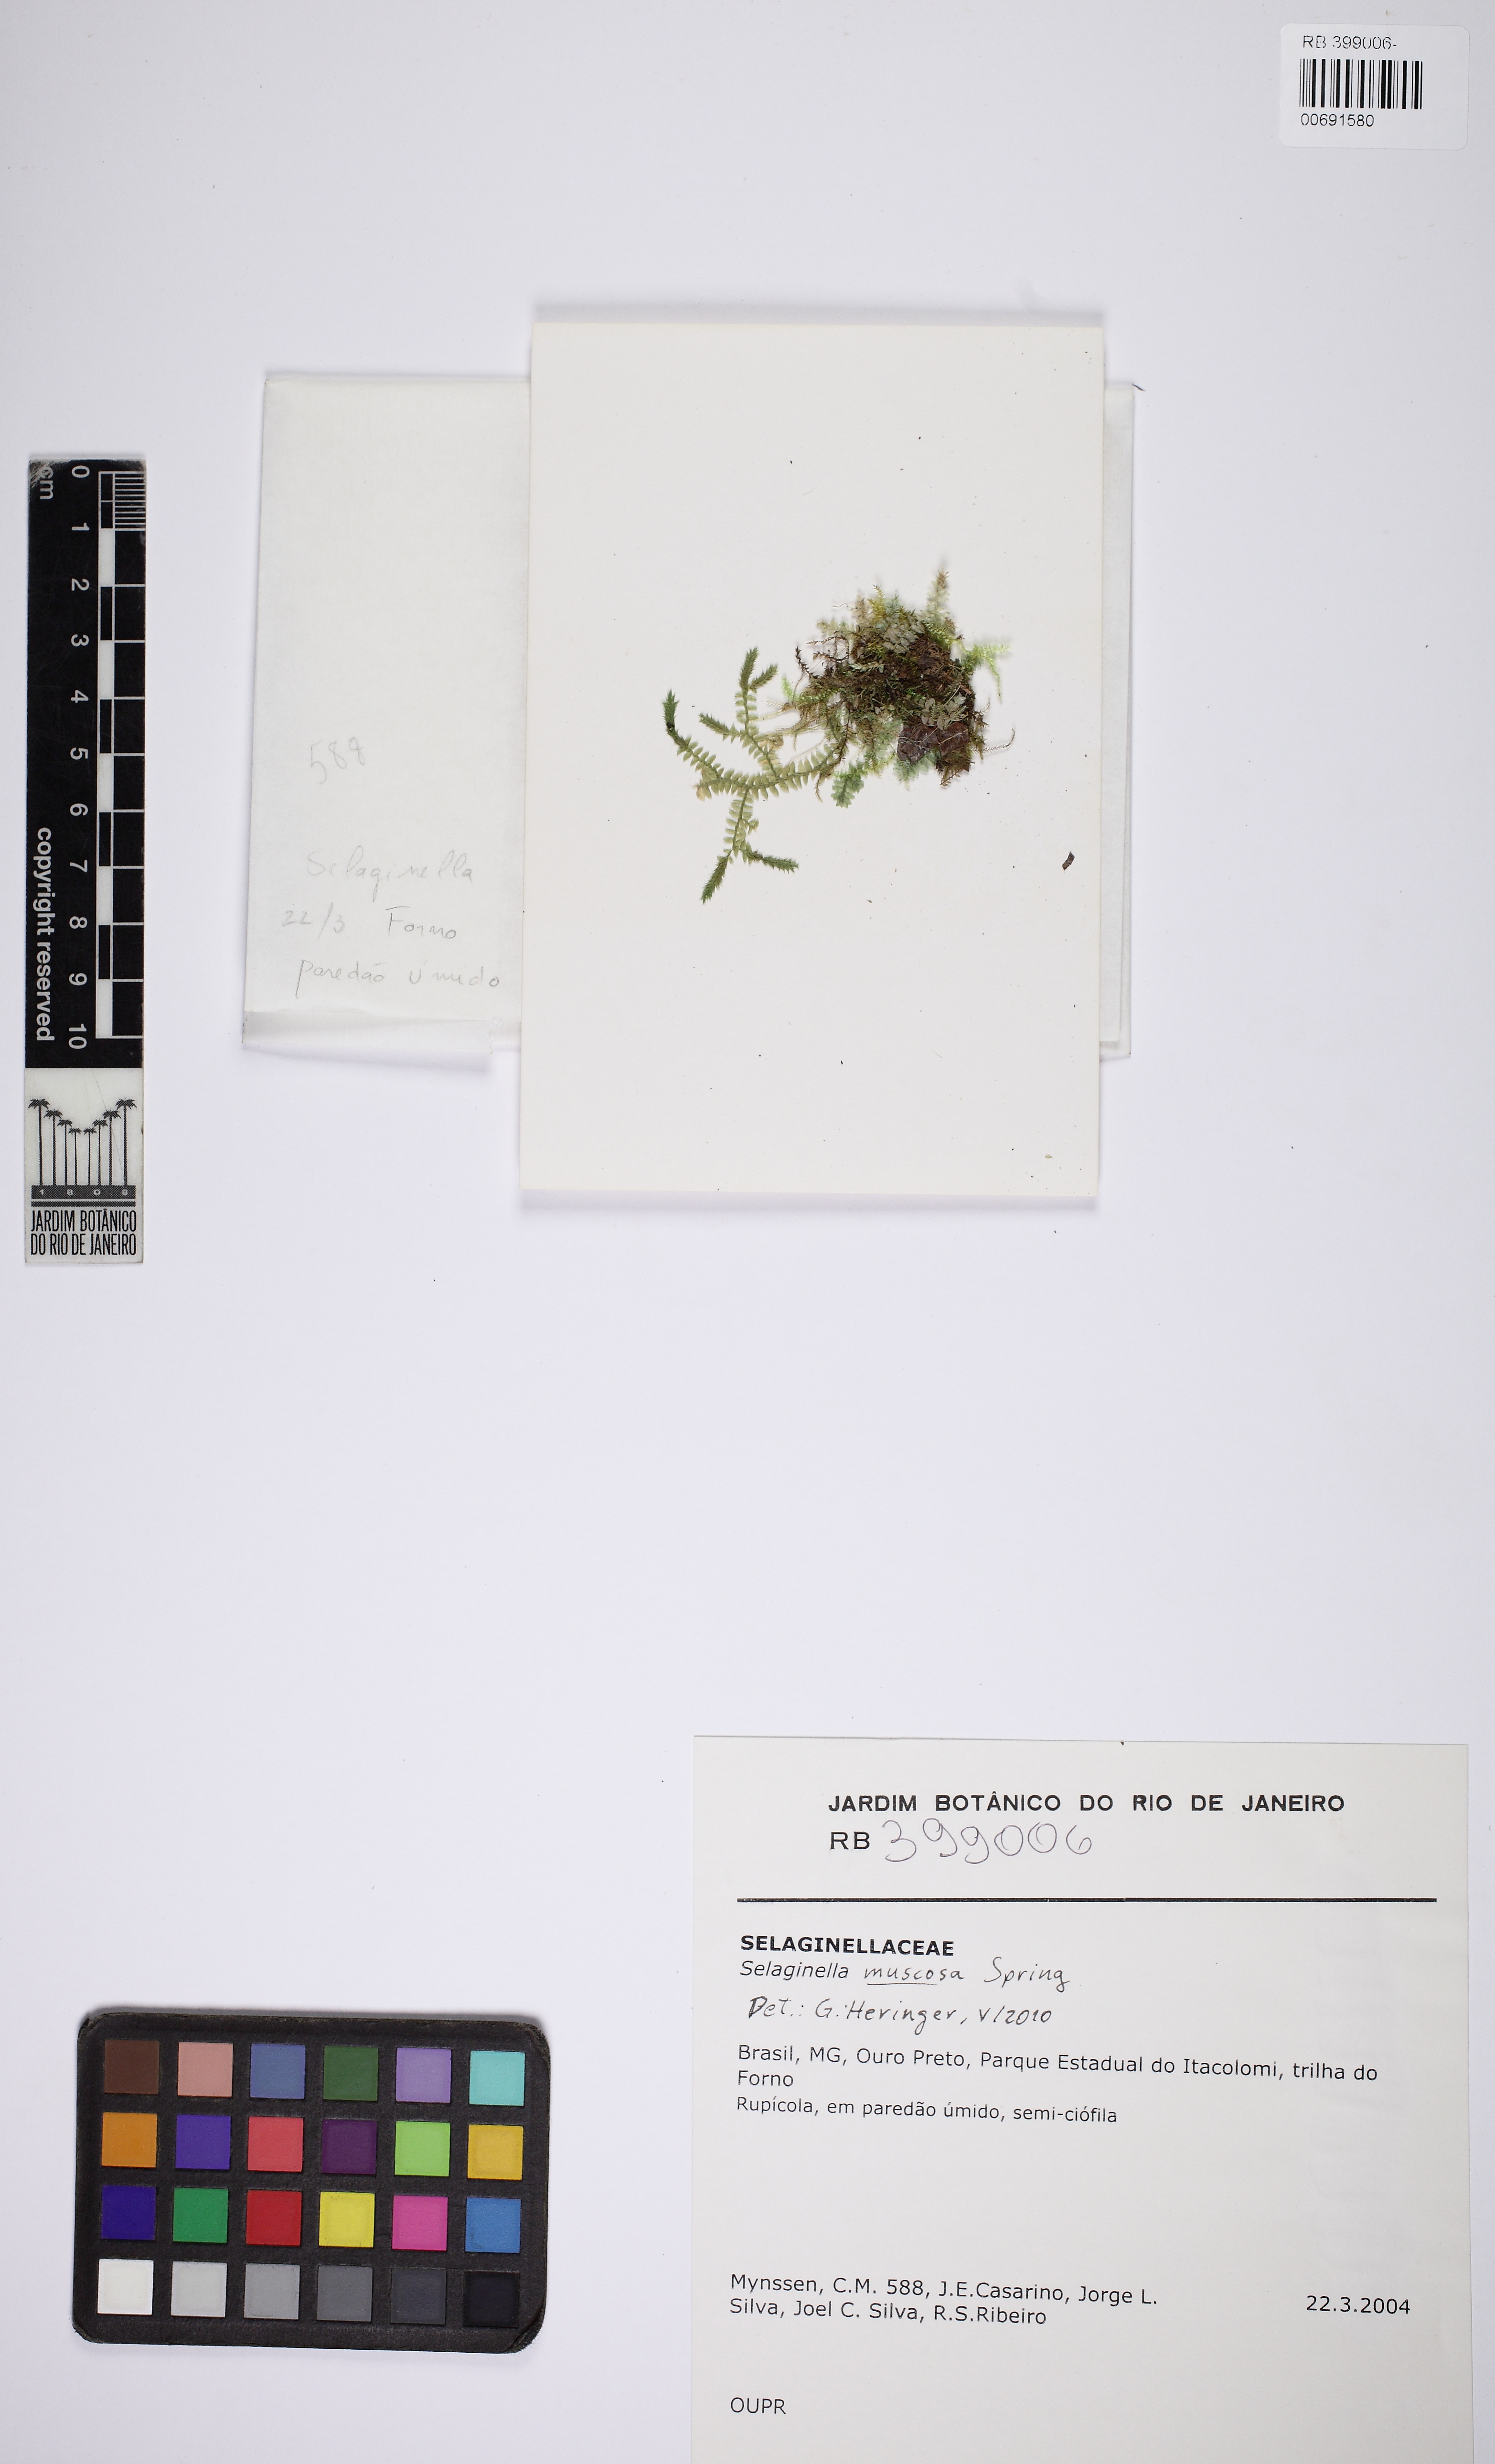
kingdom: Plantae
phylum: Tracheophyta
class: Lycopodiopsida
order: Selaginellales
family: Selaginellaceae
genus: Selaginella
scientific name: Selaginella muscosa
